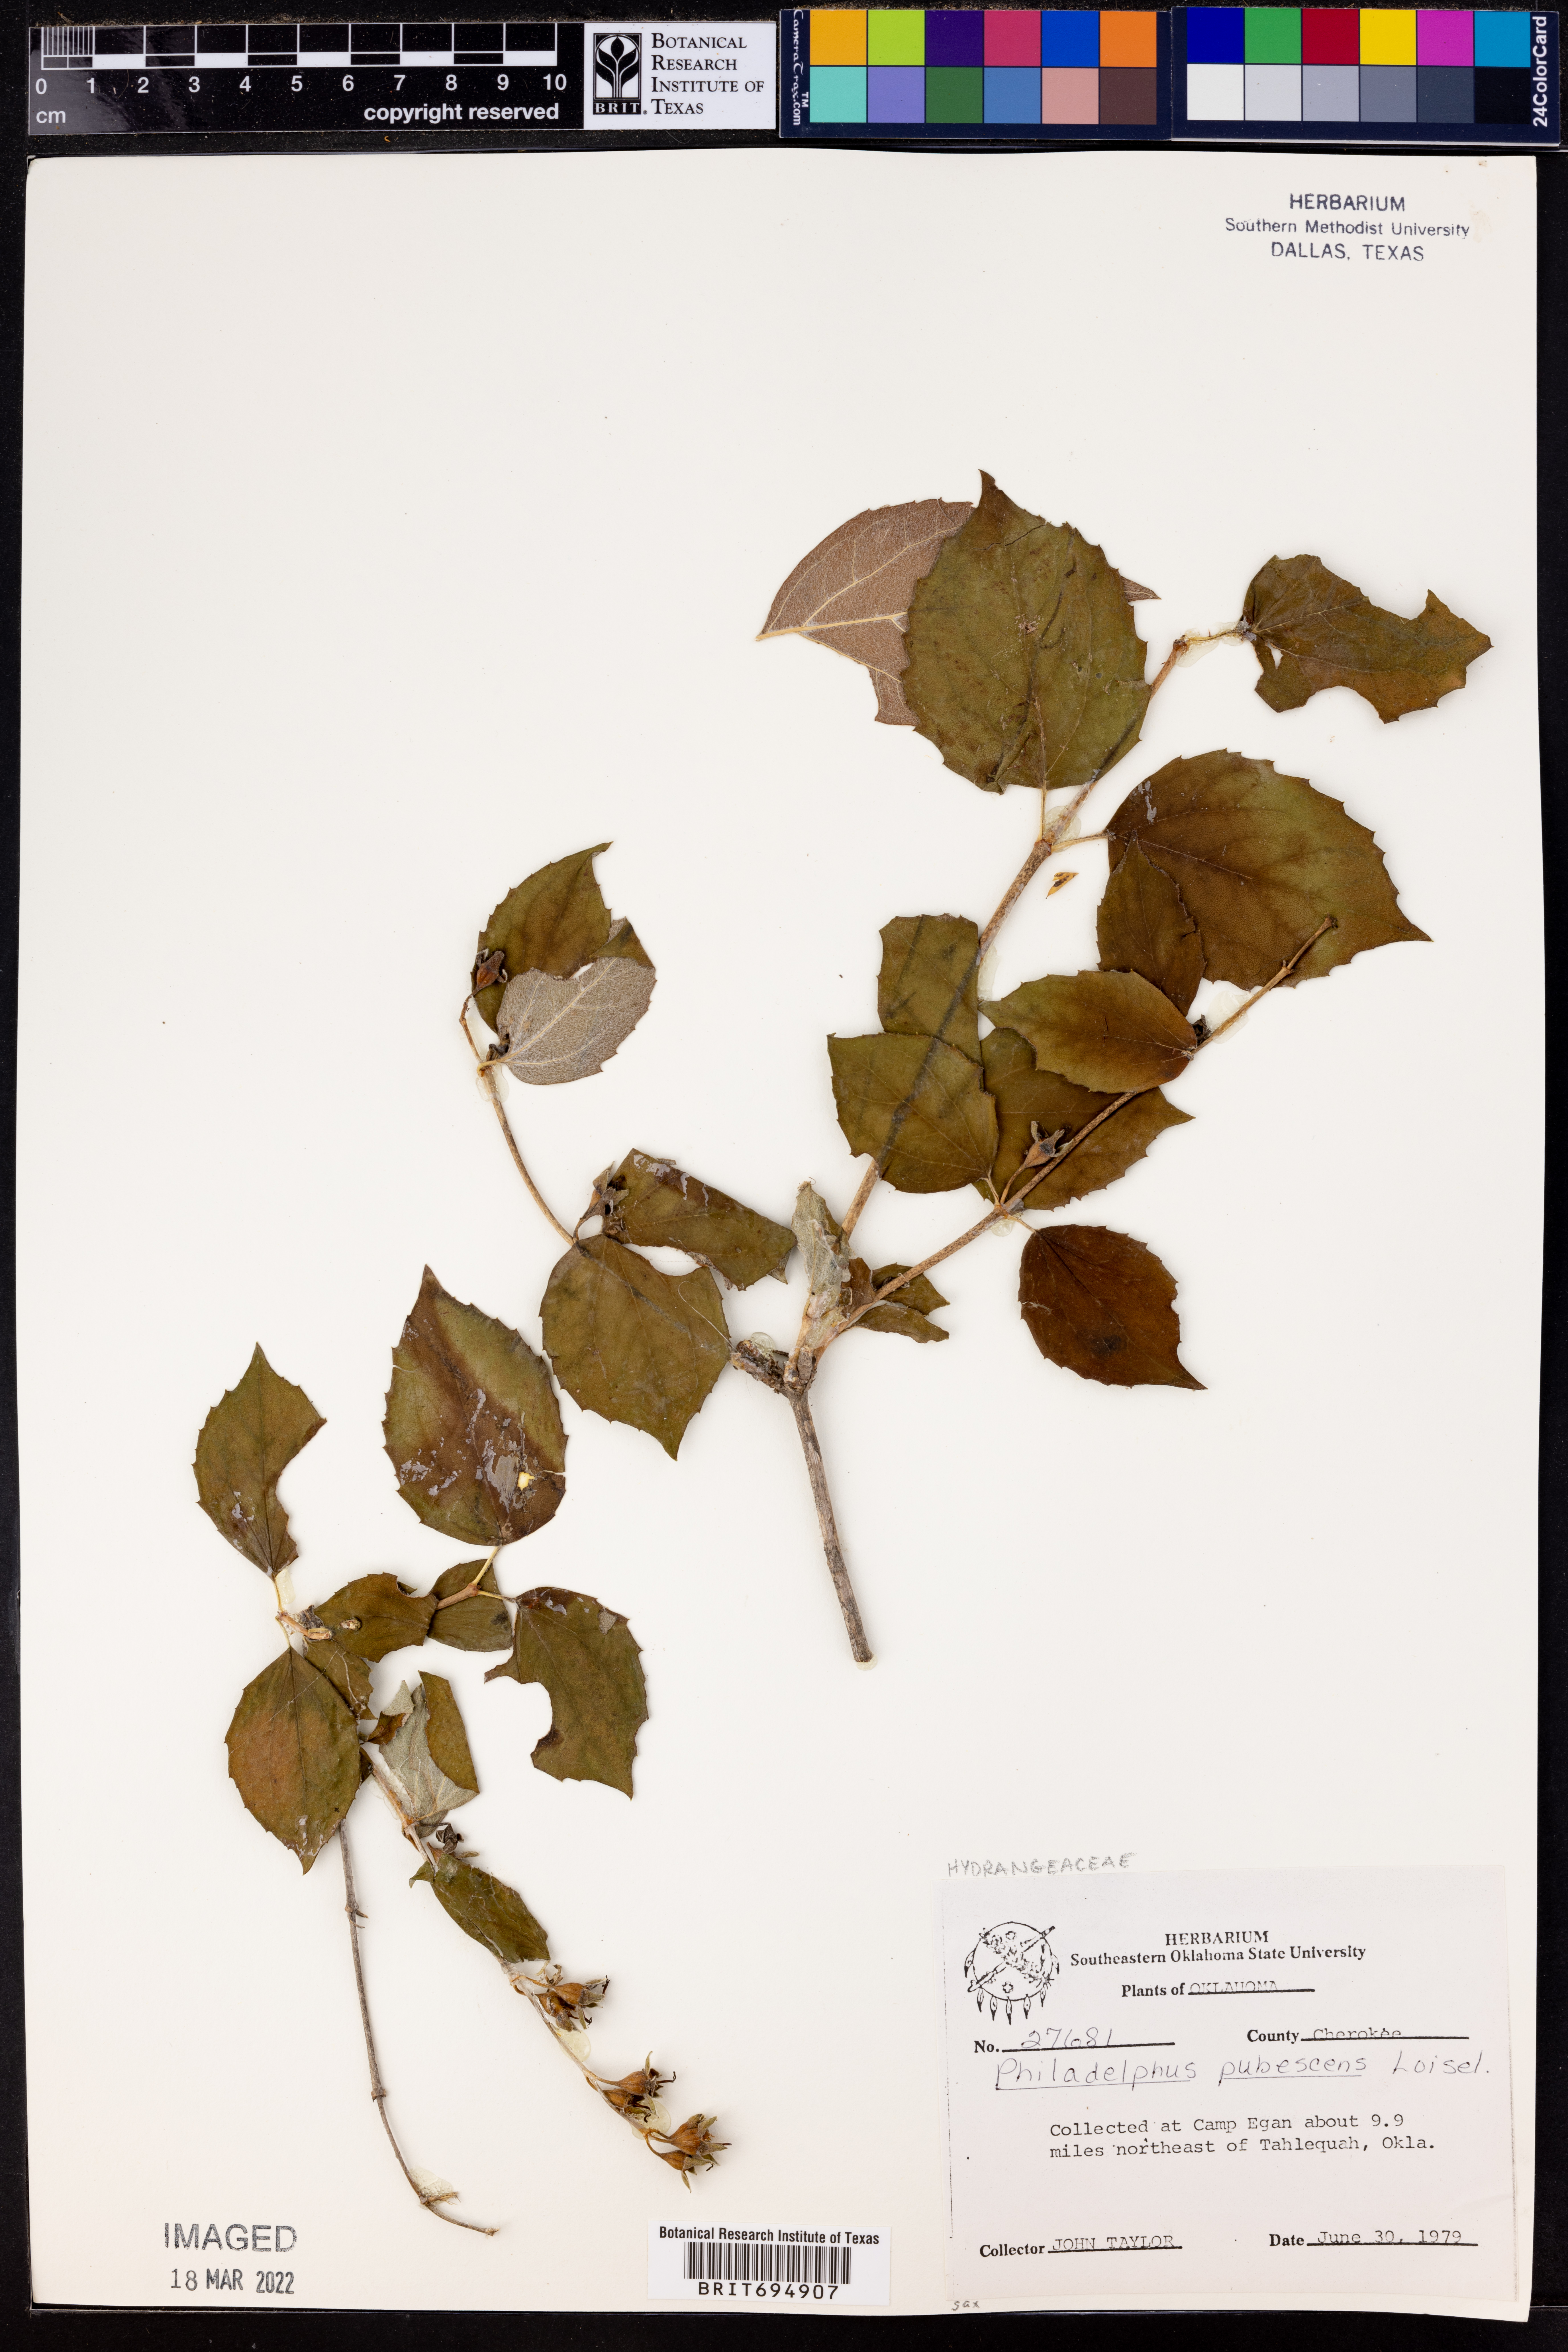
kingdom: Plantae
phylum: Tracheophyta
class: Magnoliopsida
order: Cornales
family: Hydrangeaceae
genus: Philadelphus
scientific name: Philadelphus pubescens
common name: Broadleaf mock orange
